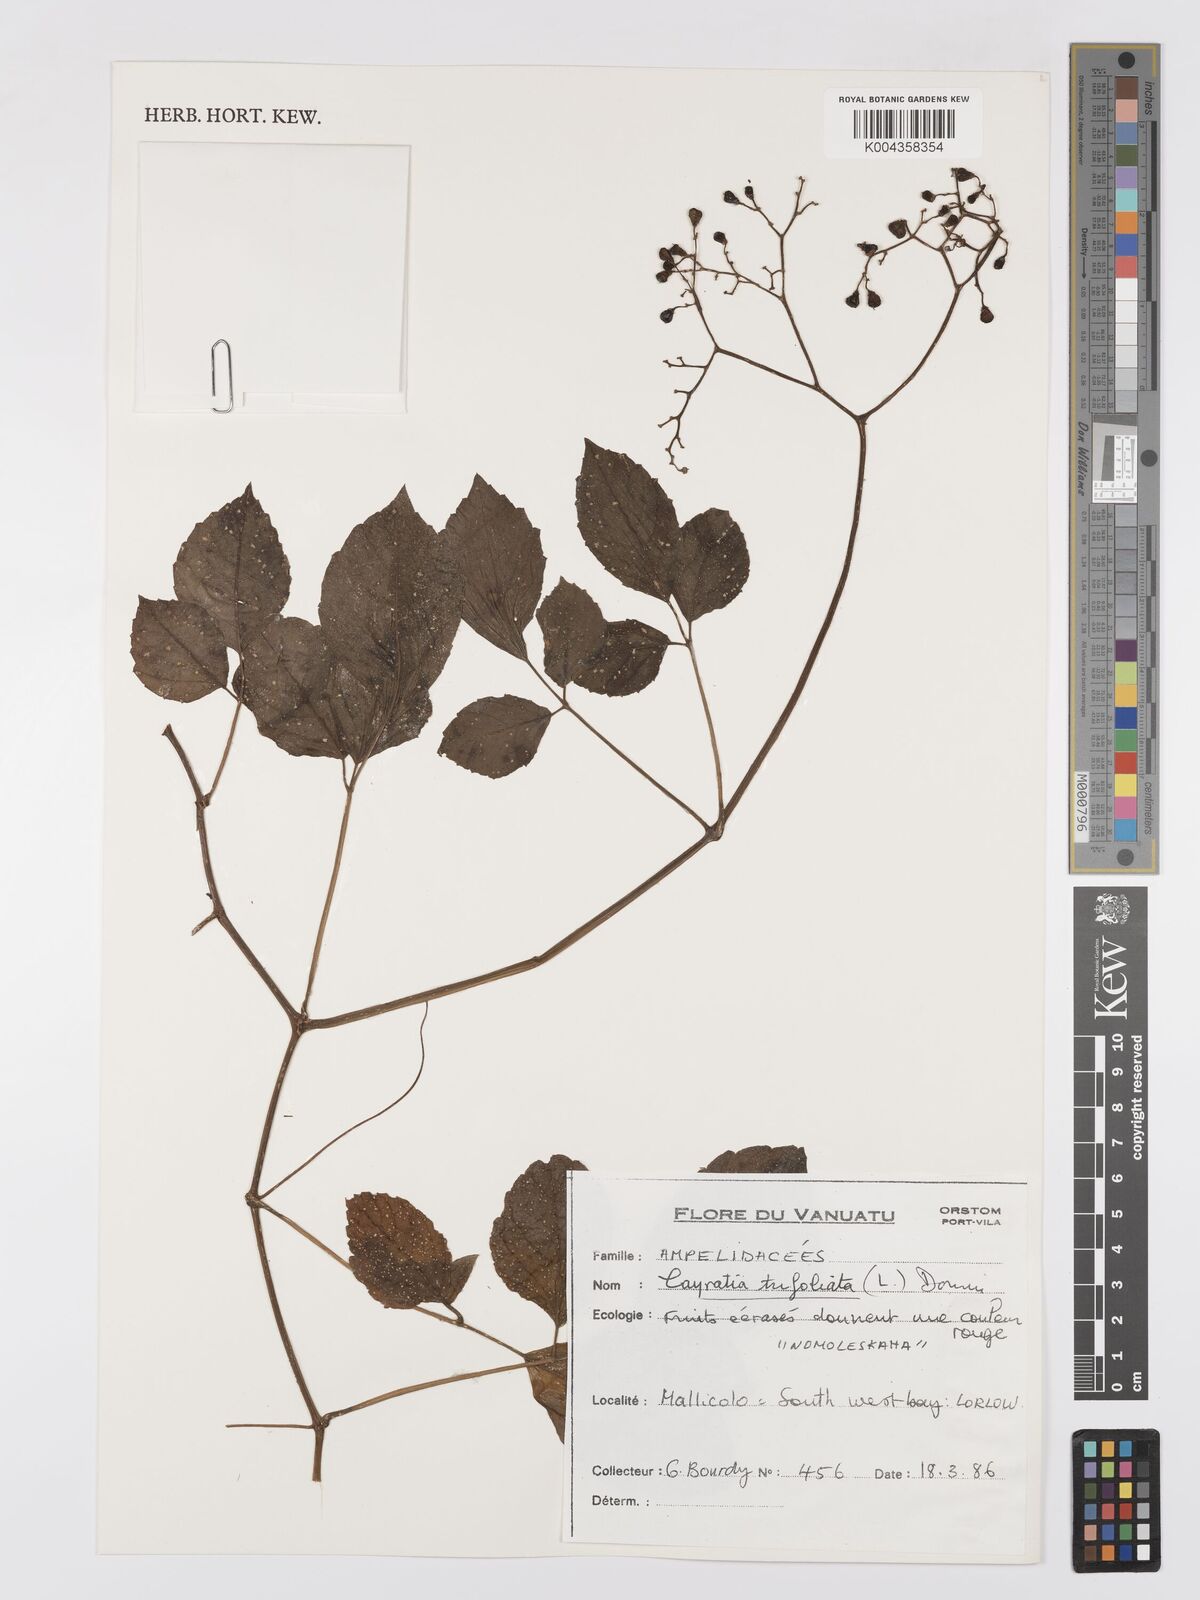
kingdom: Plantae
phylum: Tracheophyta
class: Magnoliopsida
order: Vitales
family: Vitaceae
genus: Causonis
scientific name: Causonis trifolia
